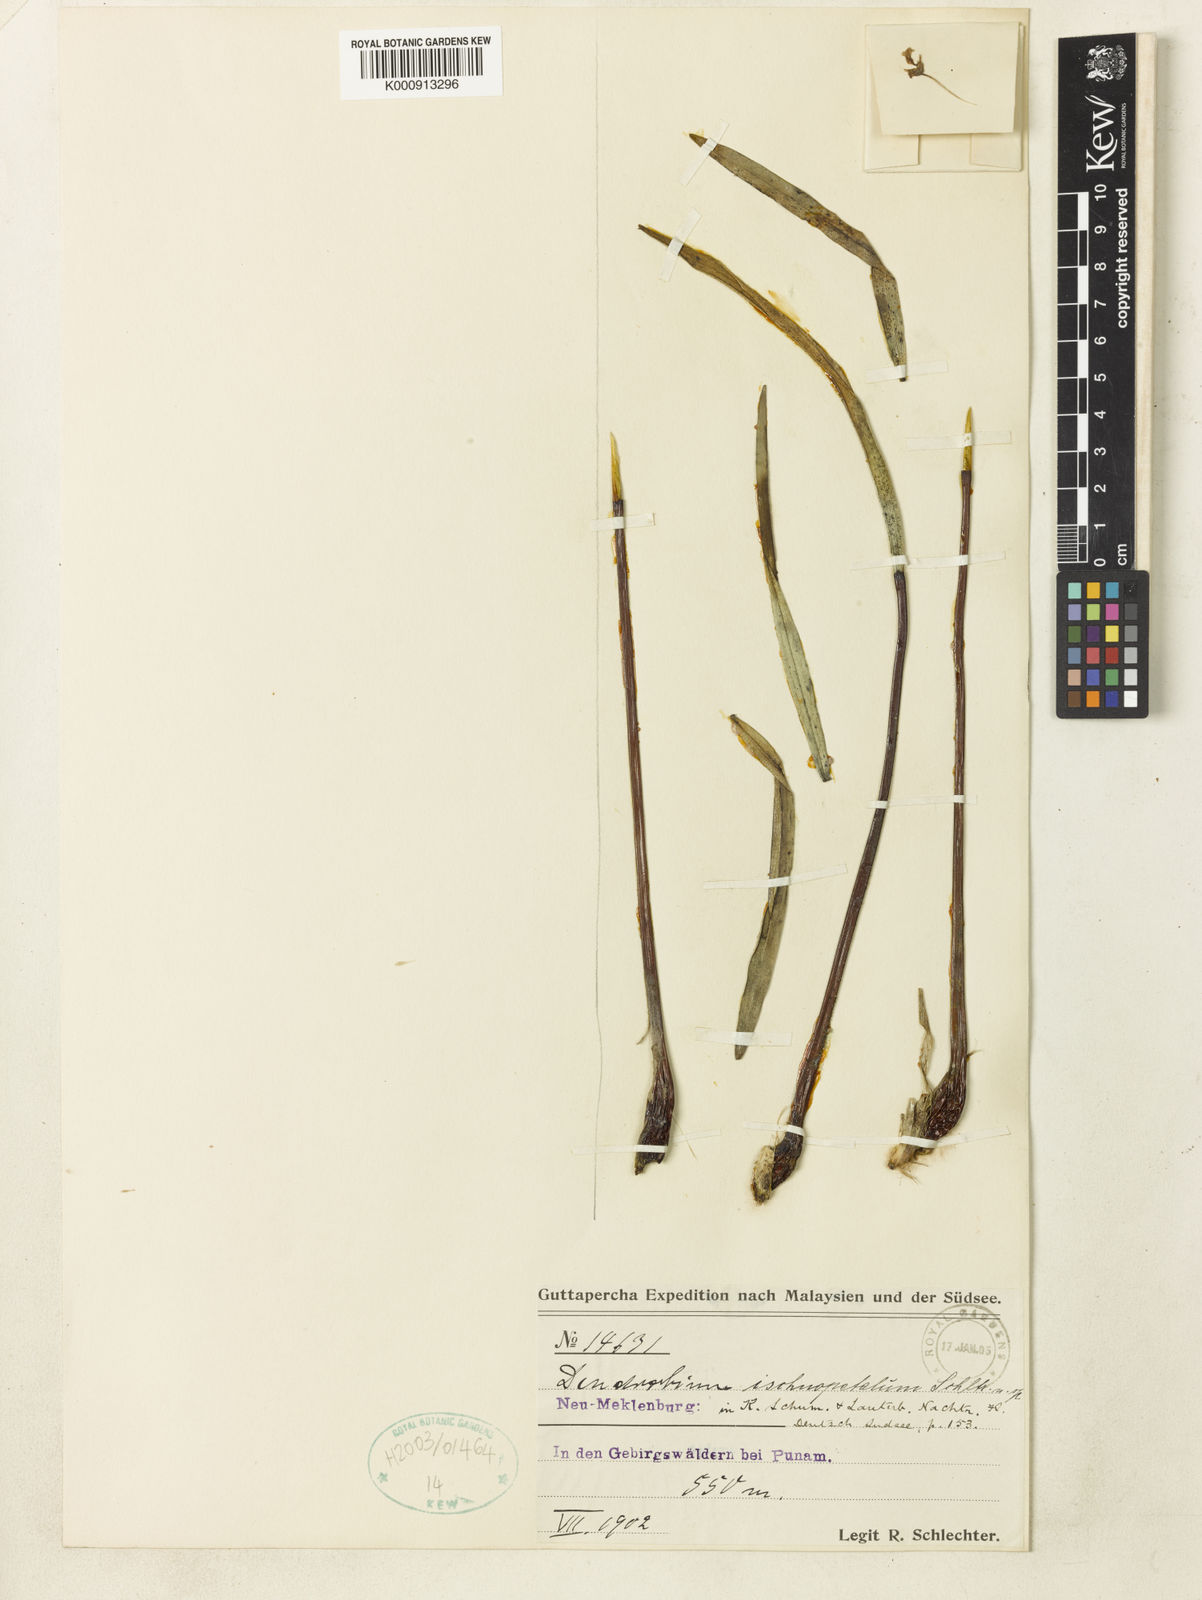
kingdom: Plantae
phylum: Tracheophyta
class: Liliopsida
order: Asparagales
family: Orchidaceae
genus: Dendrobium
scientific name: Dendrobium ischnopetalum
